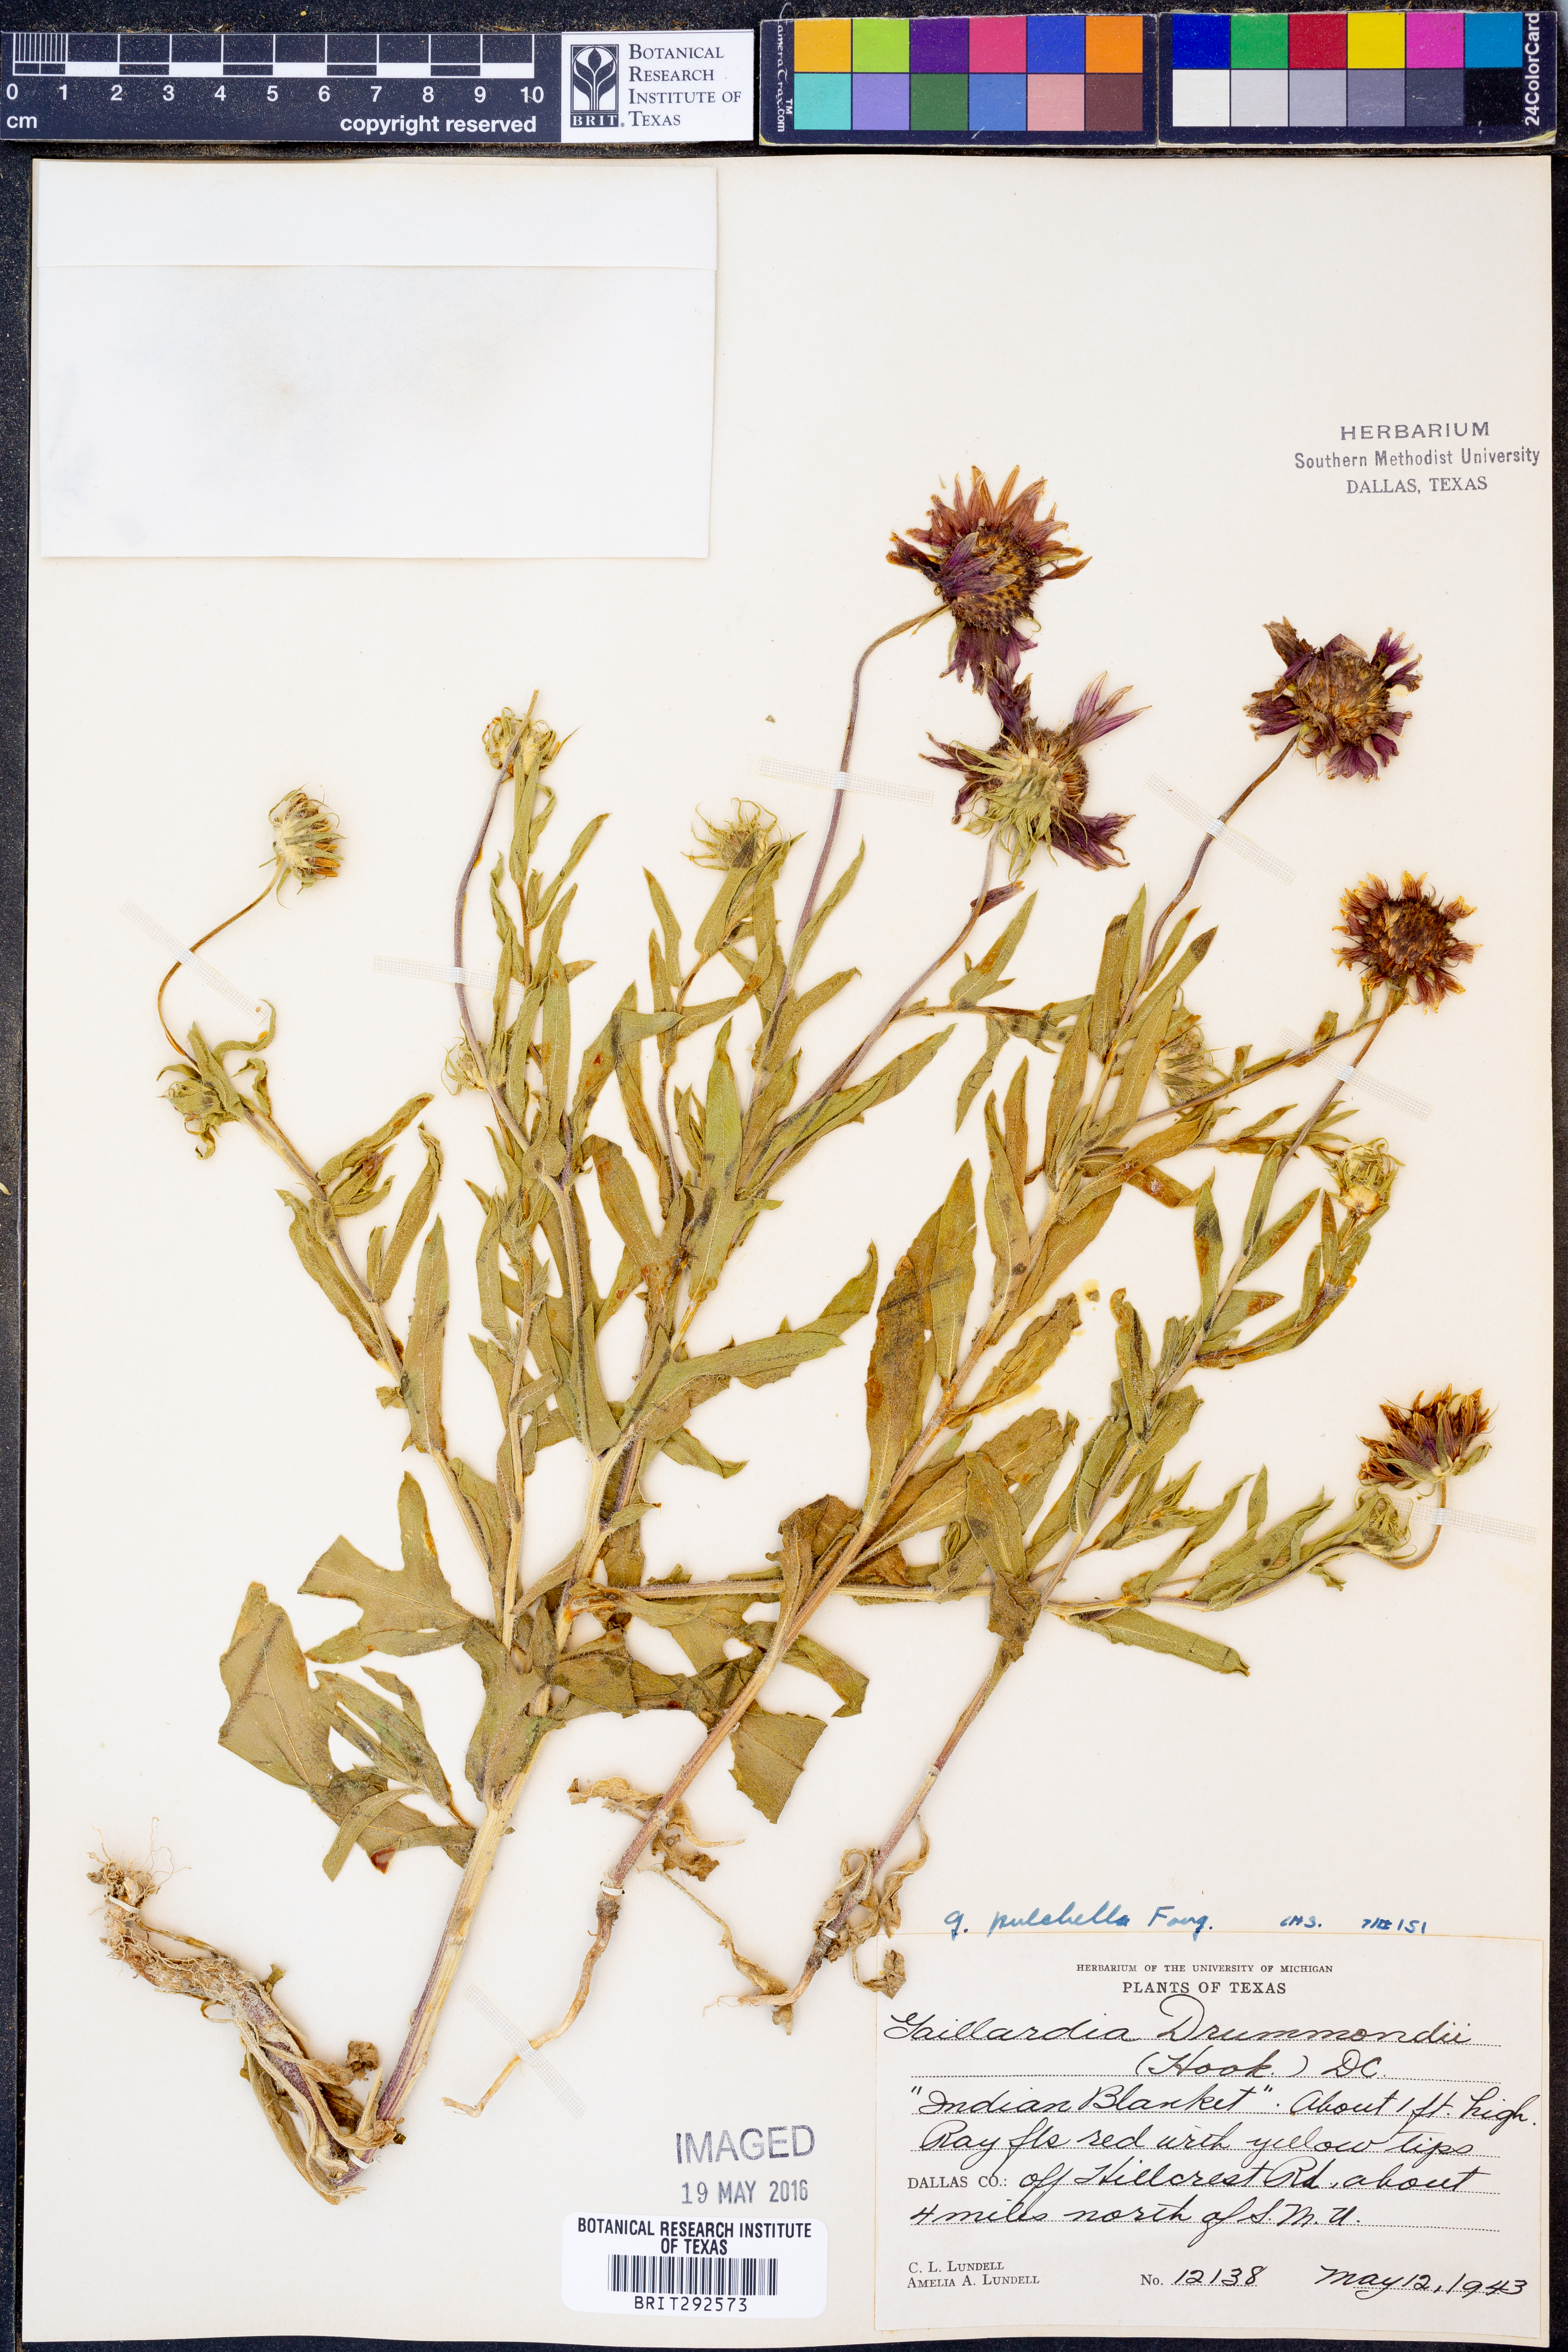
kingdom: Plantae
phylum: Tracheophyta
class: Magnoliopsida
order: Asterales
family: Asteraceae
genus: Gaillardia
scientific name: Gaillardia pulchella
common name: Firewheel
